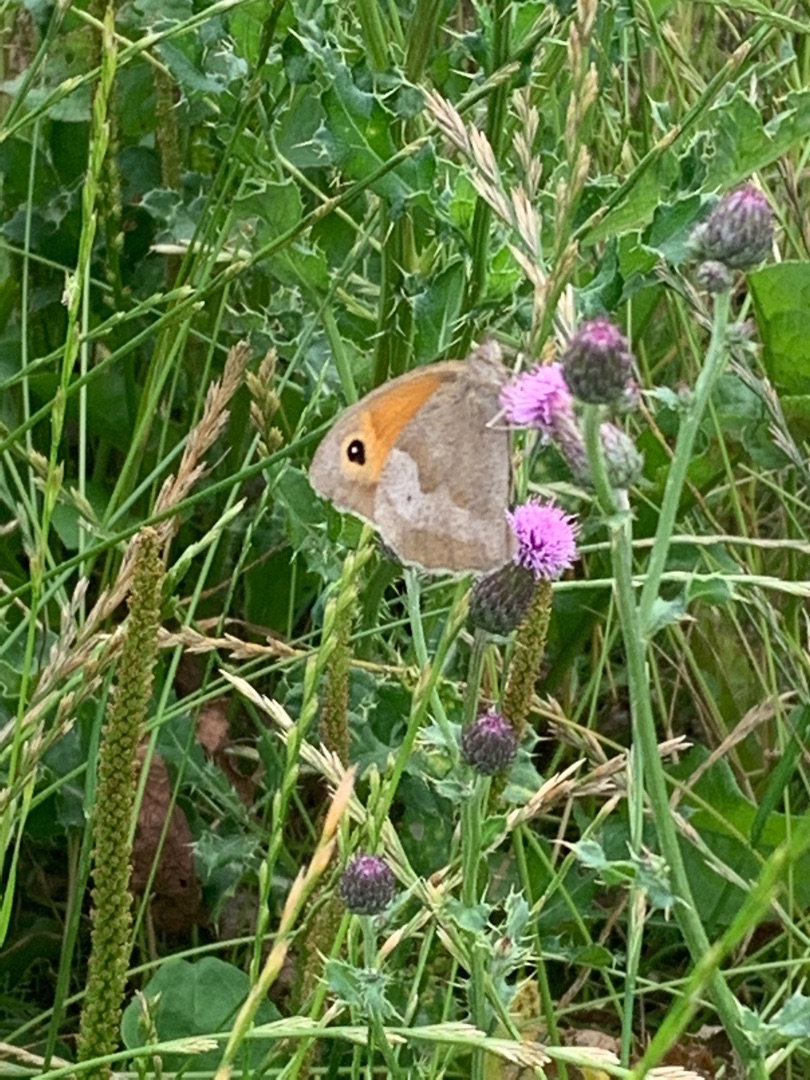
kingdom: Animalia
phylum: Arthropoda
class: Insecta
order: Lepidoptera
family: Nymphalidae
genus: Maniola
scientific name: Maniola jurtina
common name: Græsrandøje
